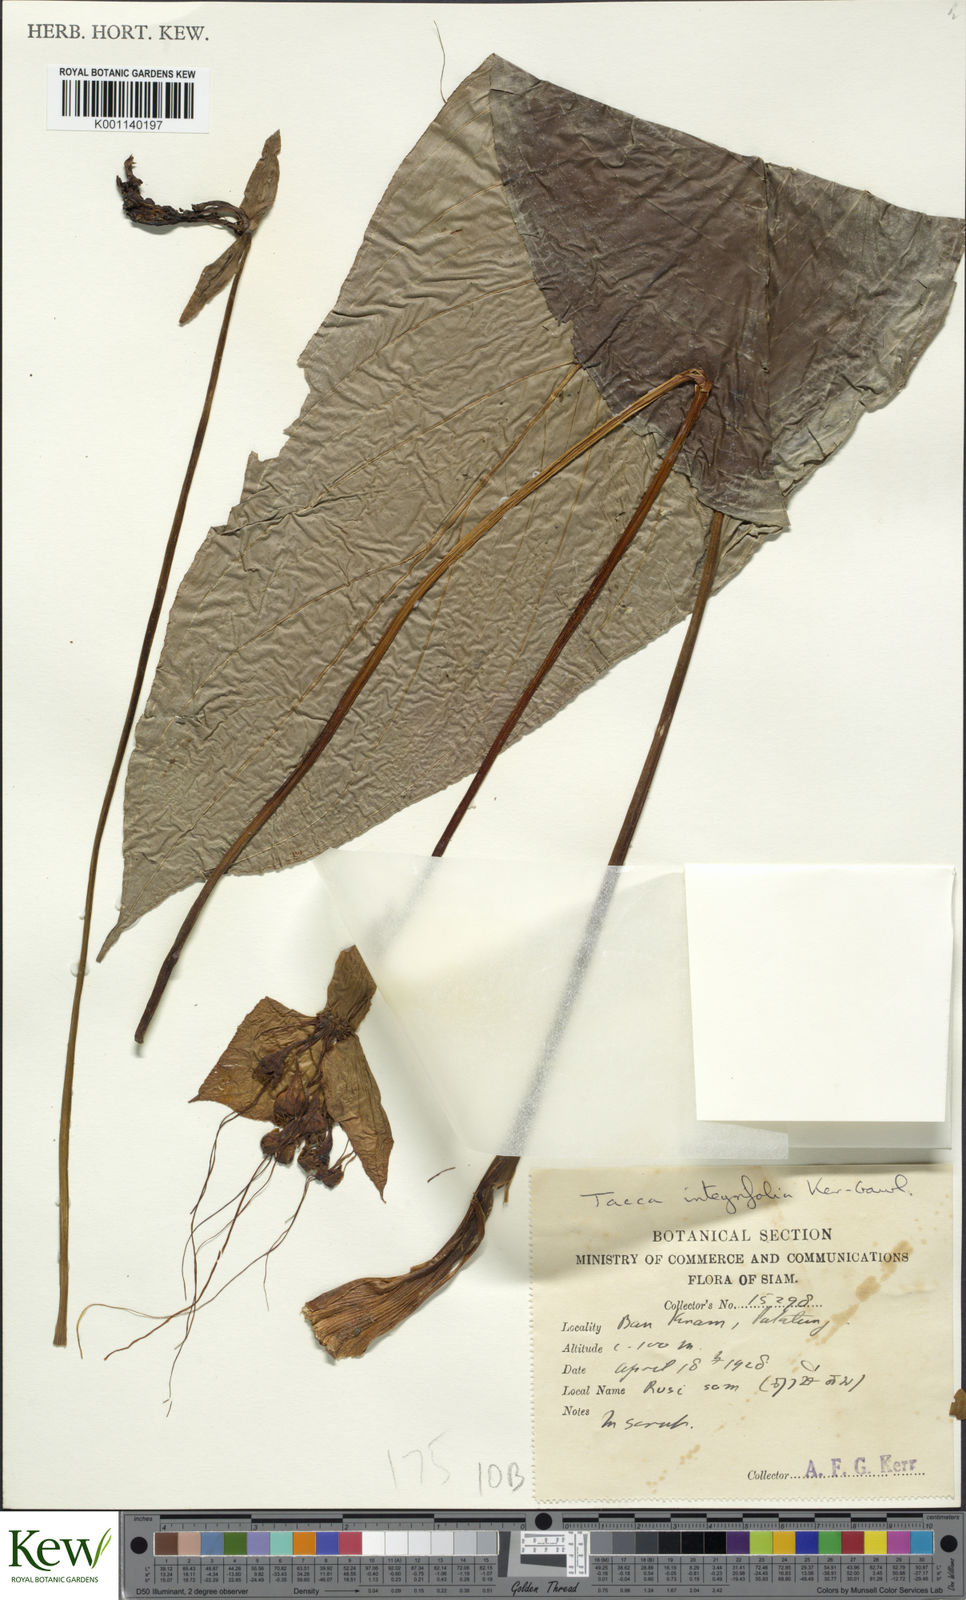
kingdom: Plantae
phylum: Tracheophyta
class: Liliopsida
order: Dioscoreales
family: Dioscoreaceae
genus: Tacca
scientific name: Tacca integrifolia
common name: Batplant
